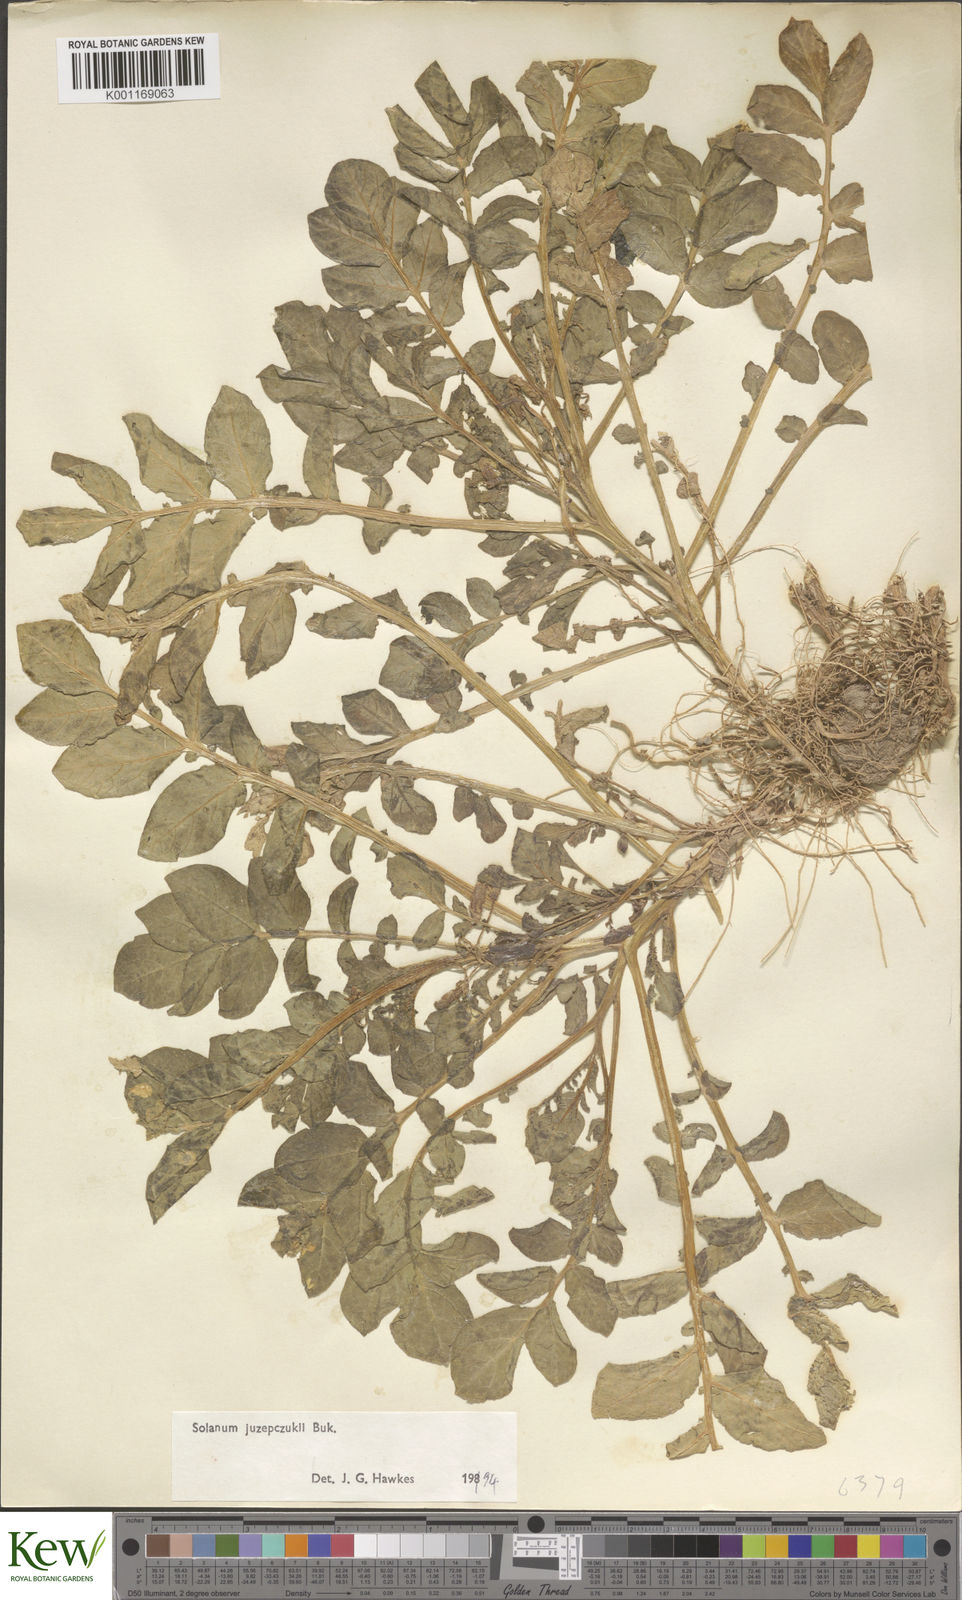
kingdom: Plantae
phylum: Tracheophyta
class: Magnoliopsida
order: Solanales
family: Solanaceae
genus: Solanum
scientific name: Solanum juzepczukii
